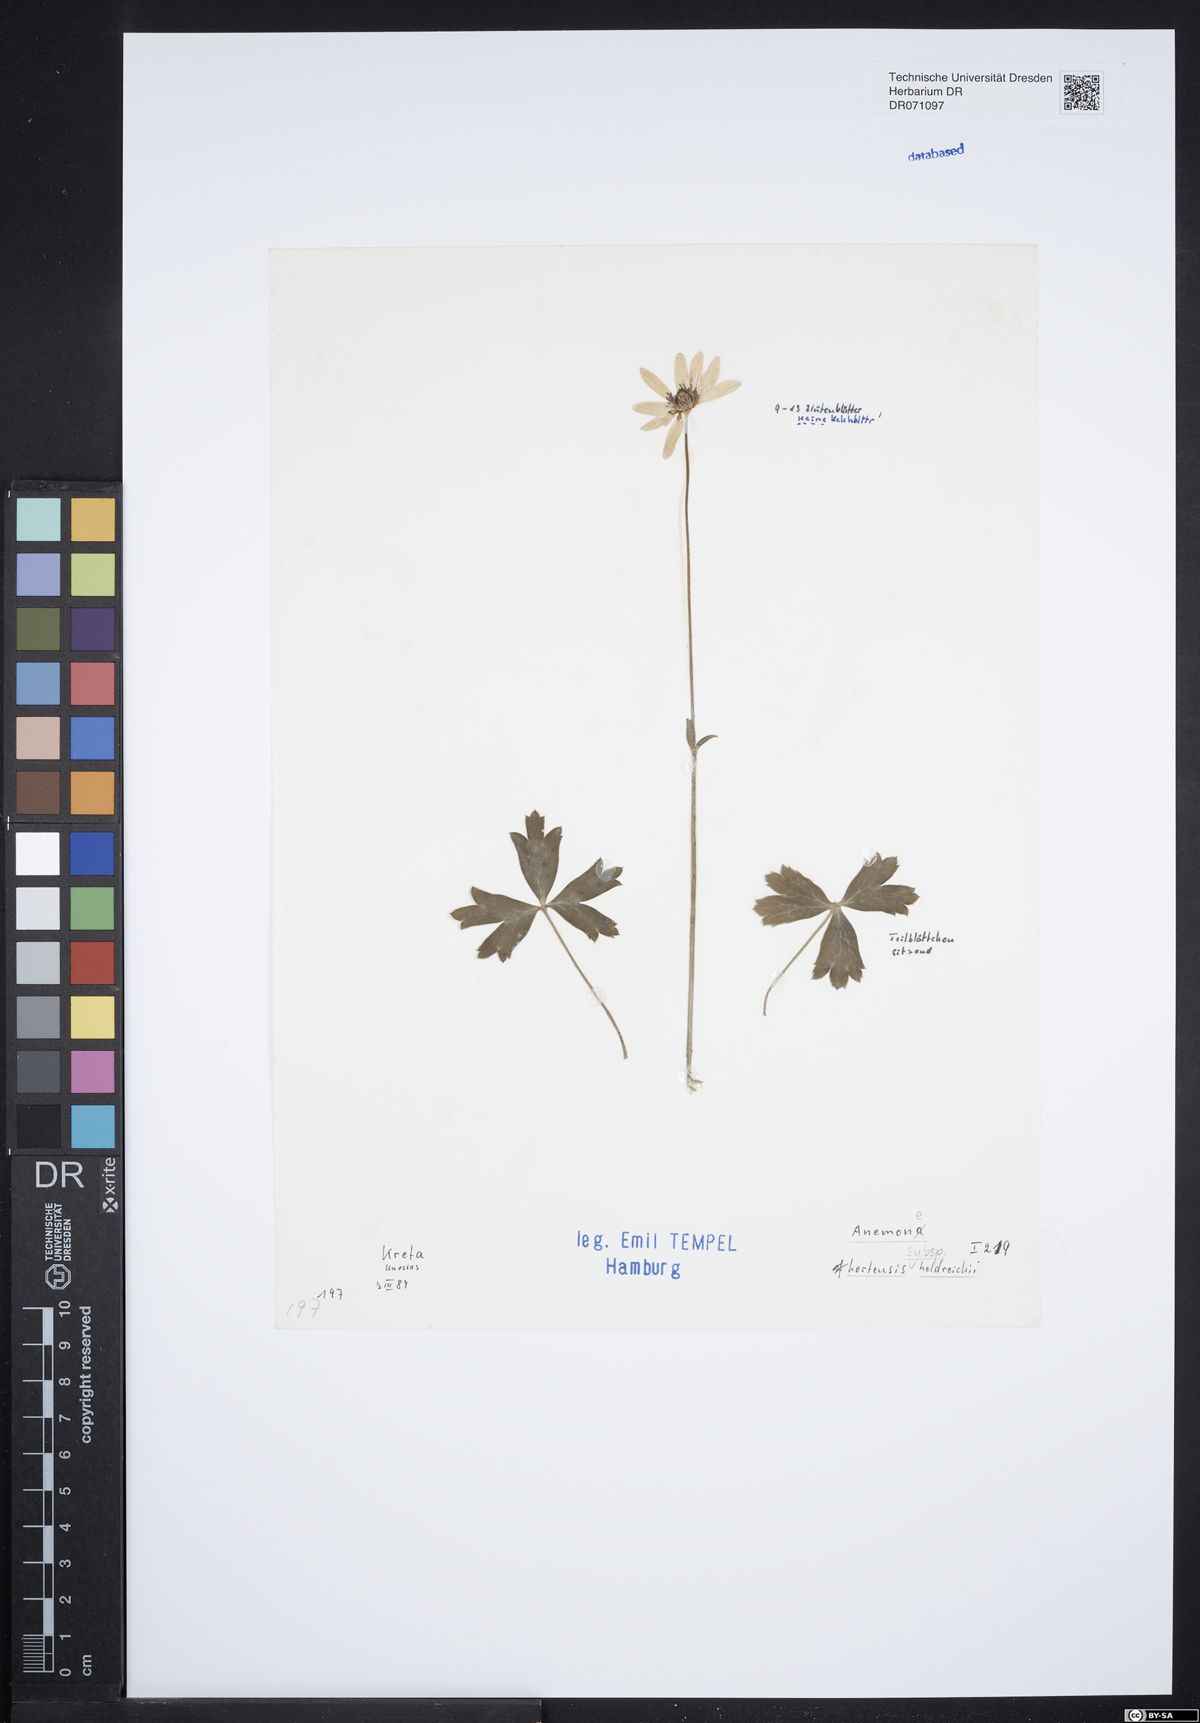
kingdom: Plantae
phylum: Tracheophyta
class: Magnoliopsida
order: Ranunculales
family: Ranunculaceae
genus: Anemone
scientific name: Anemone hortensis
